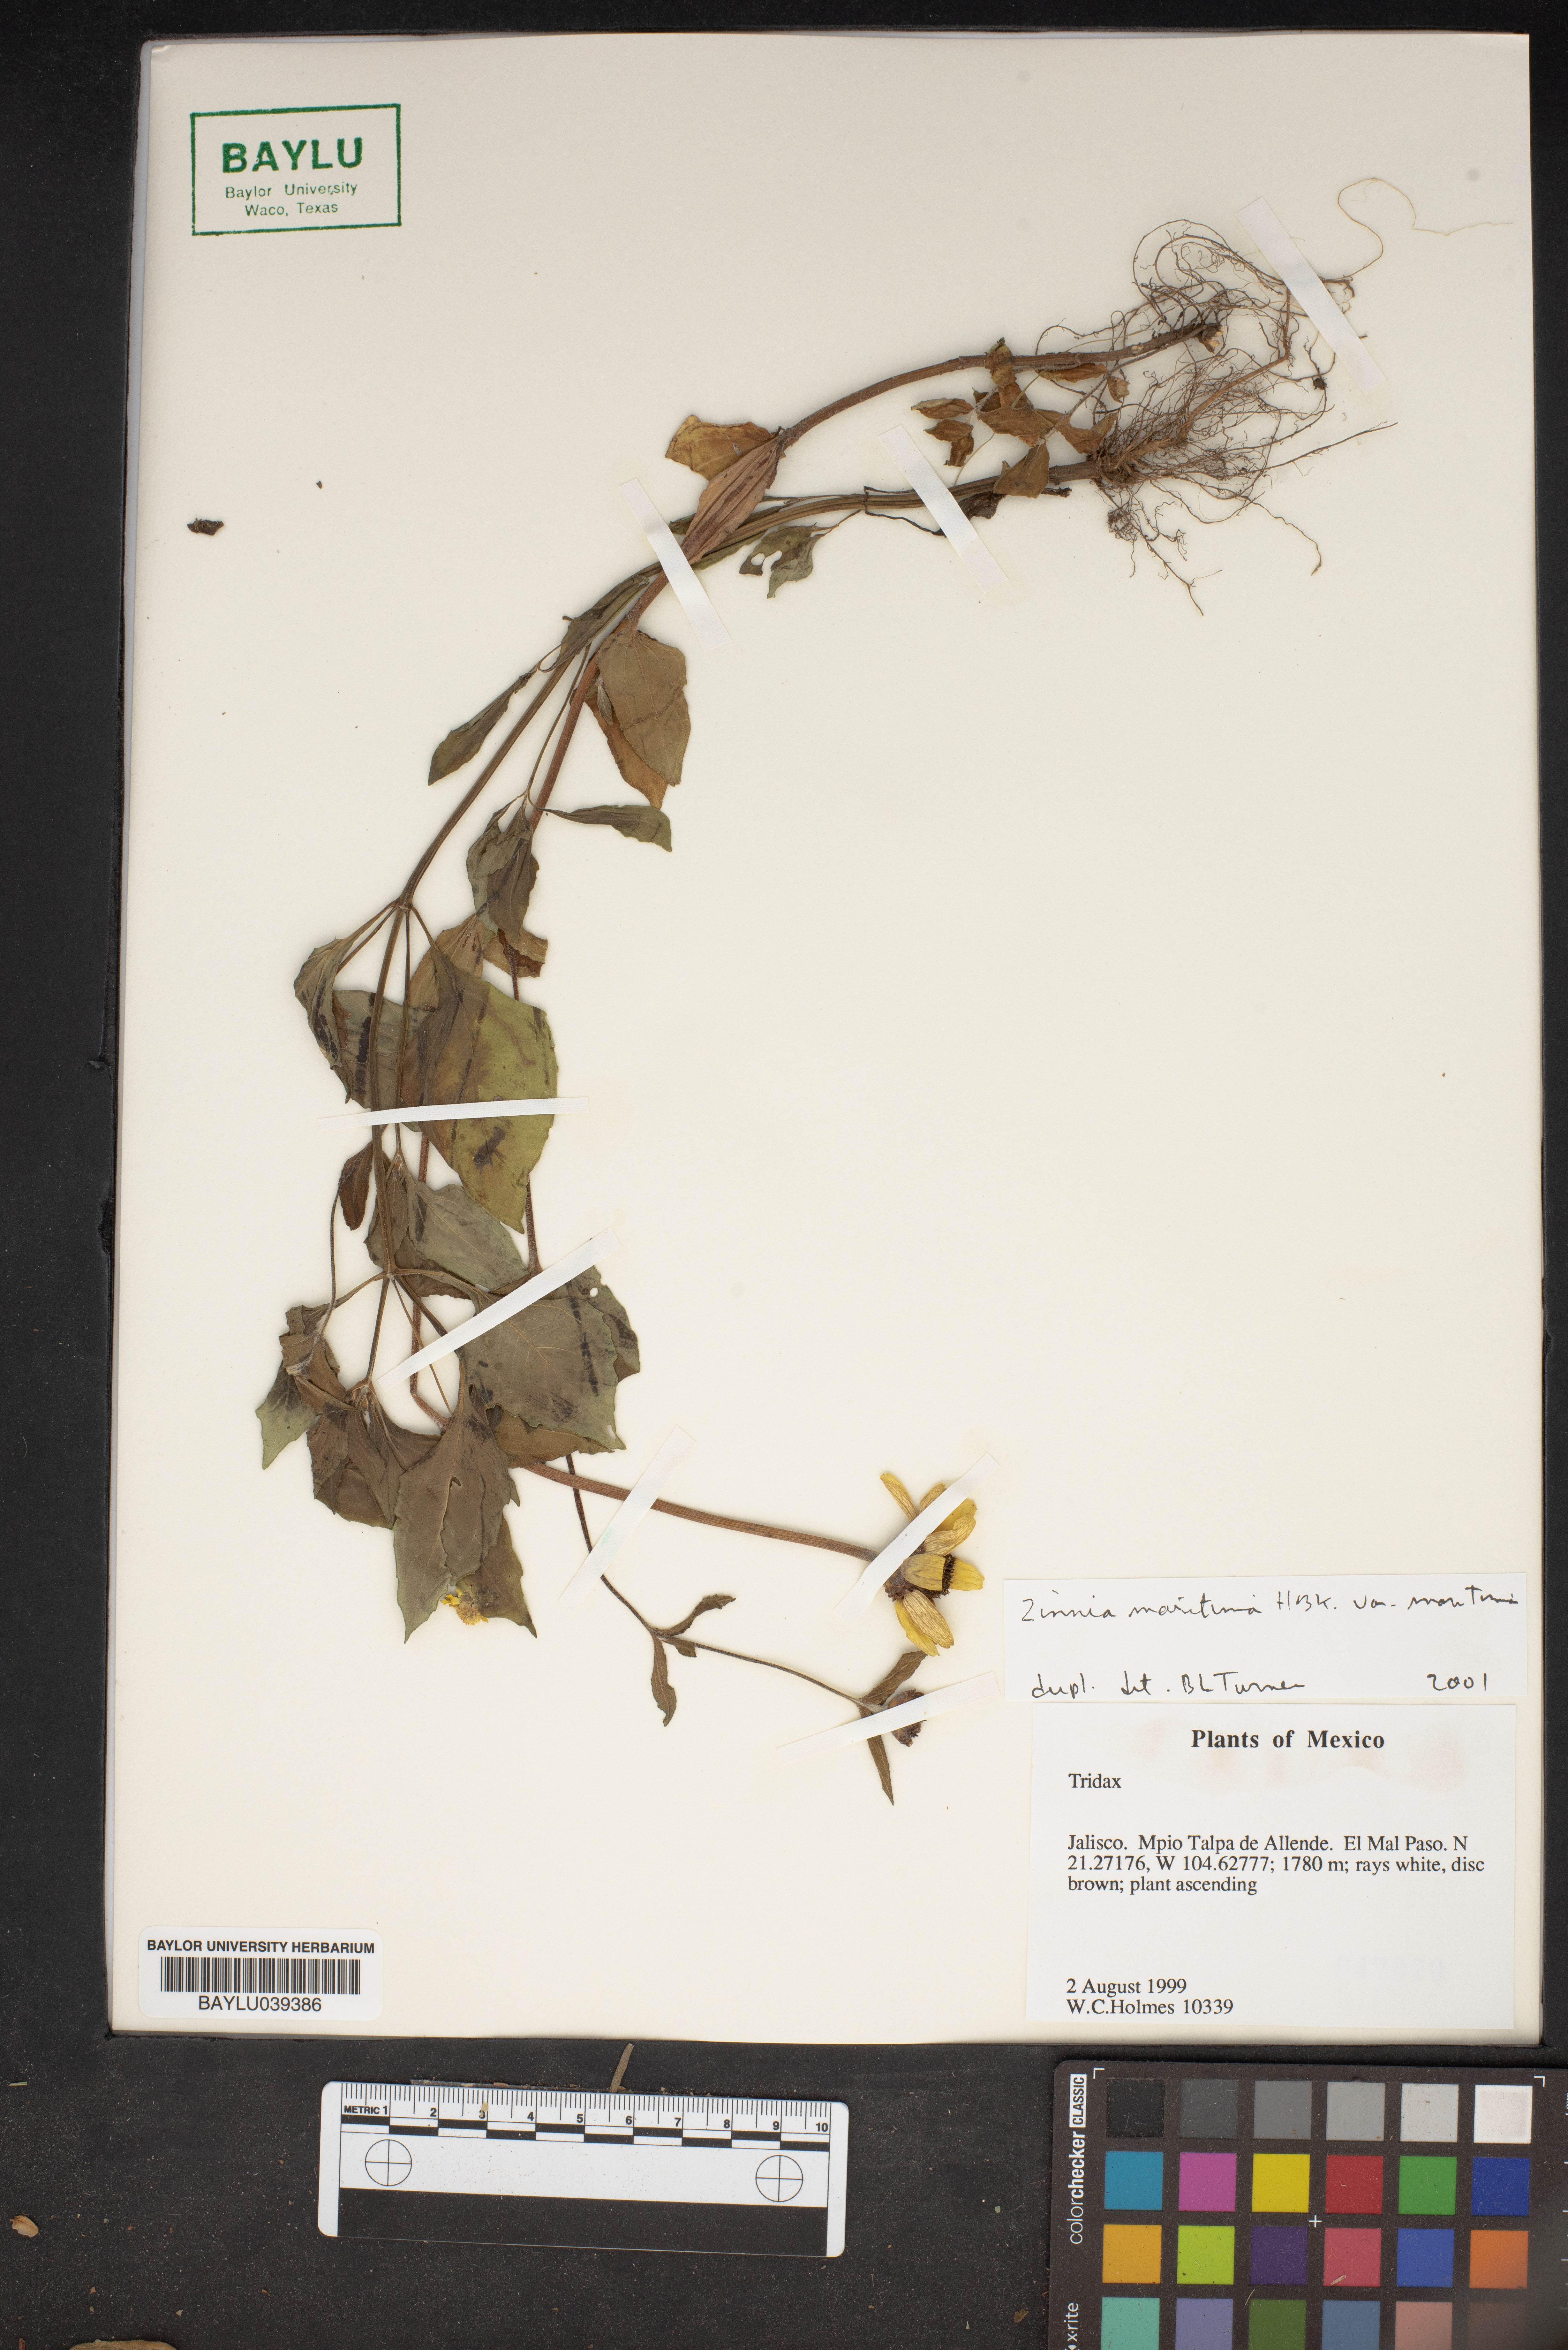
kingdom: Plantae
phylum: Tracheophyta
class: Magnoliopsida
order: Asterales
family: Asteraceae
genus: Zinnia
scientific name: Zinnia maritima
